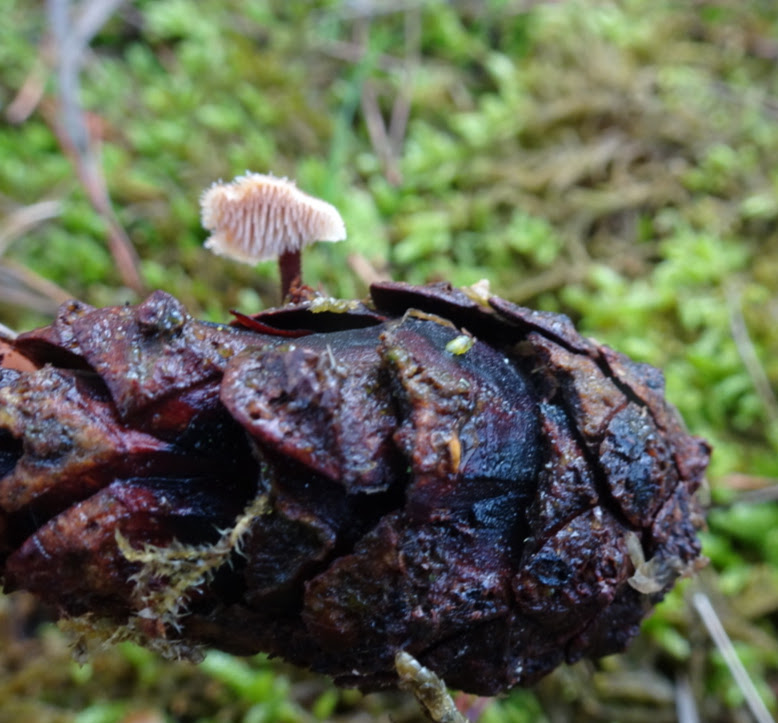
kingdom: Fungi
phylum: Basidiomycota
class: Agaricomycetes
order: Russulales
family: Auriscalpiaceae
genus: Auriscalpium
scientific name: Auriscalpium vulgare
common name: koglepigsvamp
